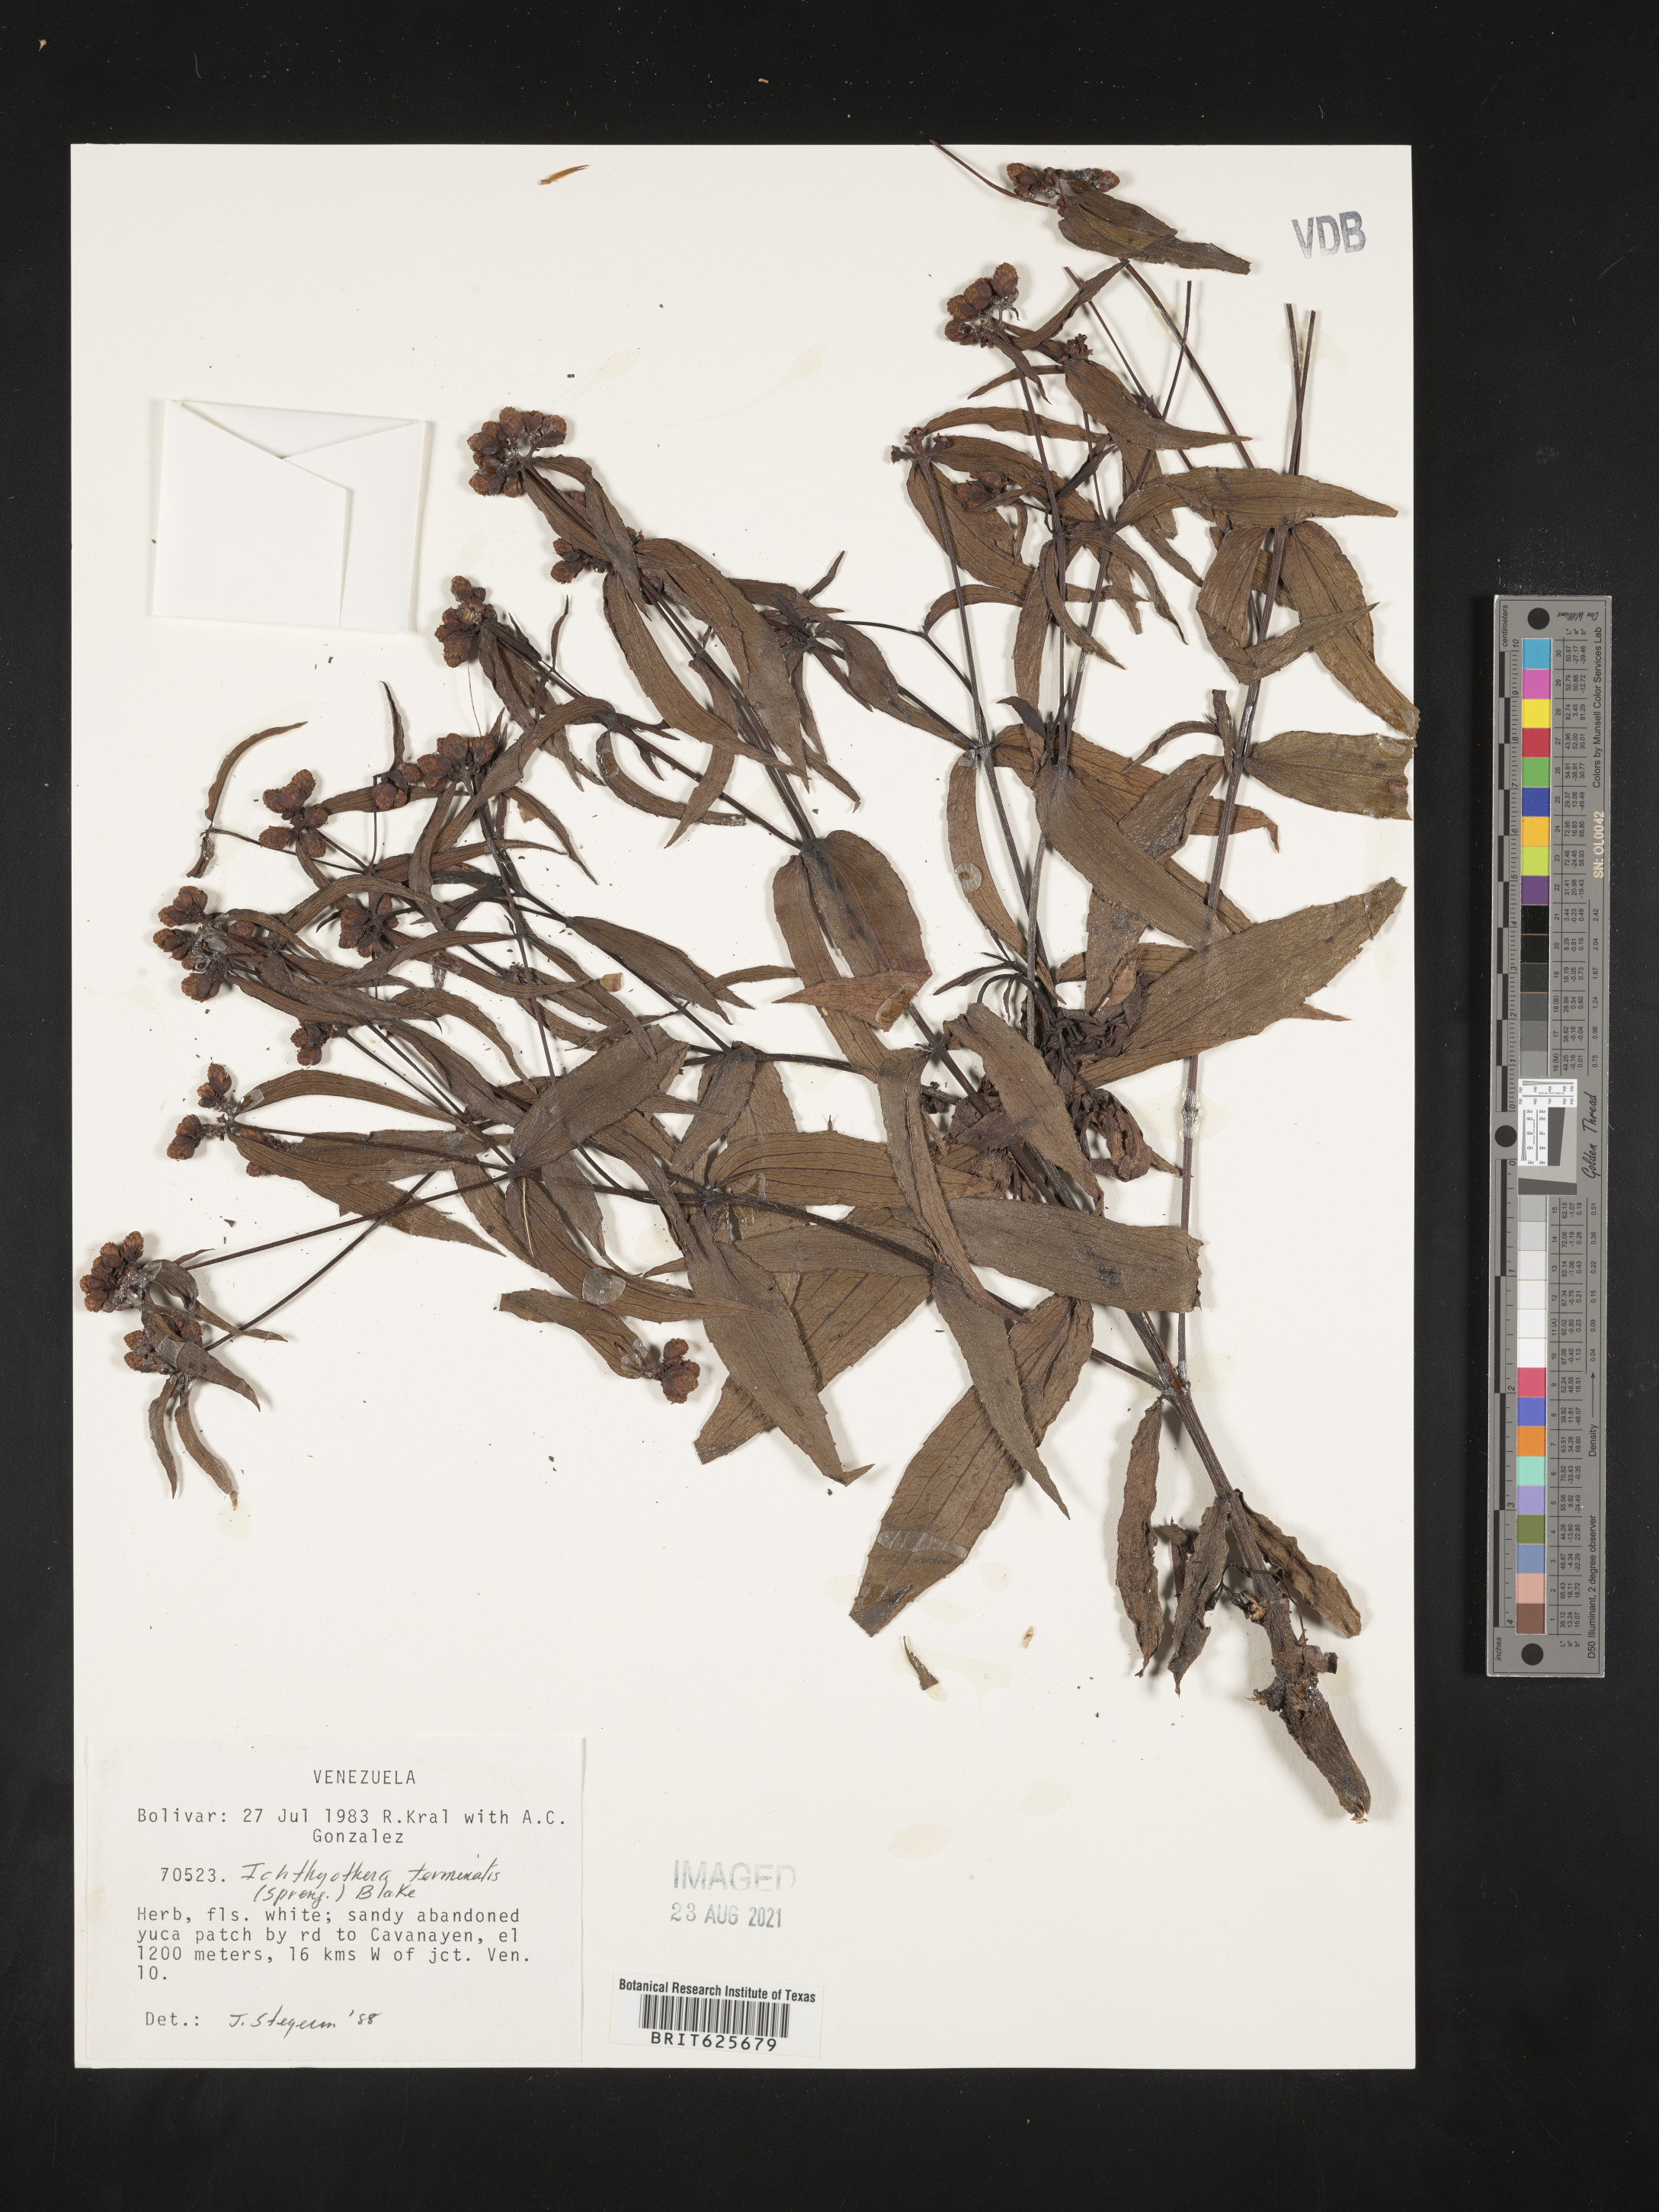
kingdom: Plantae
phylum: Tracheophyta
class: Magnoliopsida
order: Asterales
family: Asteraceae
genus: Ichthyothere
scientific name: Ichthyothere terminalis
